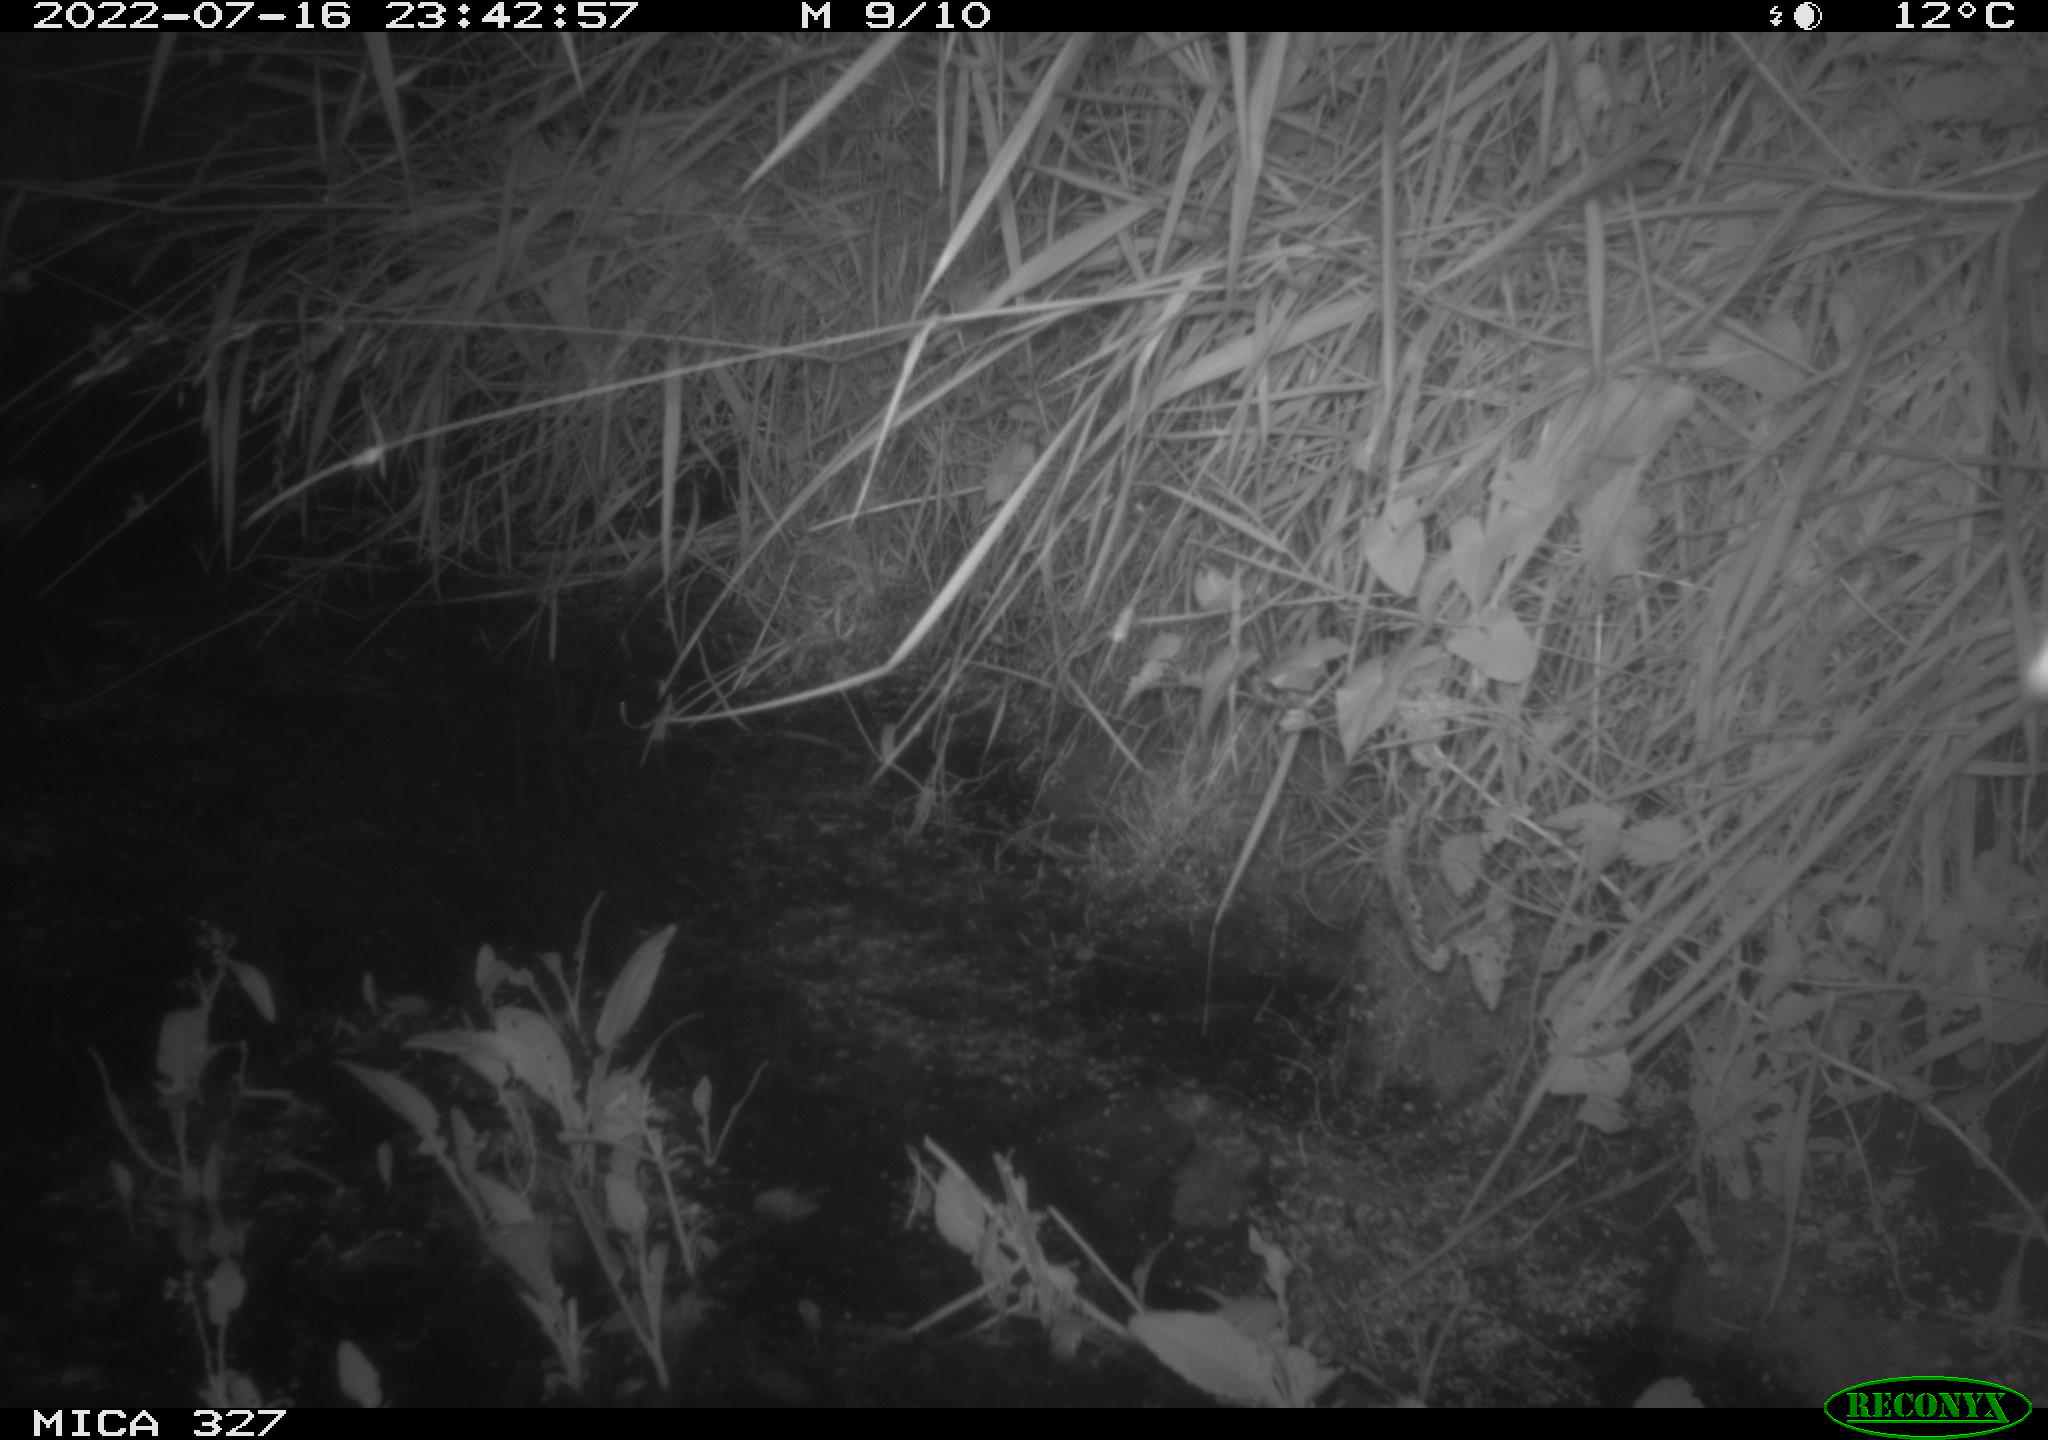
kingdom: Animalia
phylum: Chordata
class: Mammalia
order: Rodentia
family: Muridae
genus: Rattus
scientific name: Rattus norvegicus
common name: Brown rat
